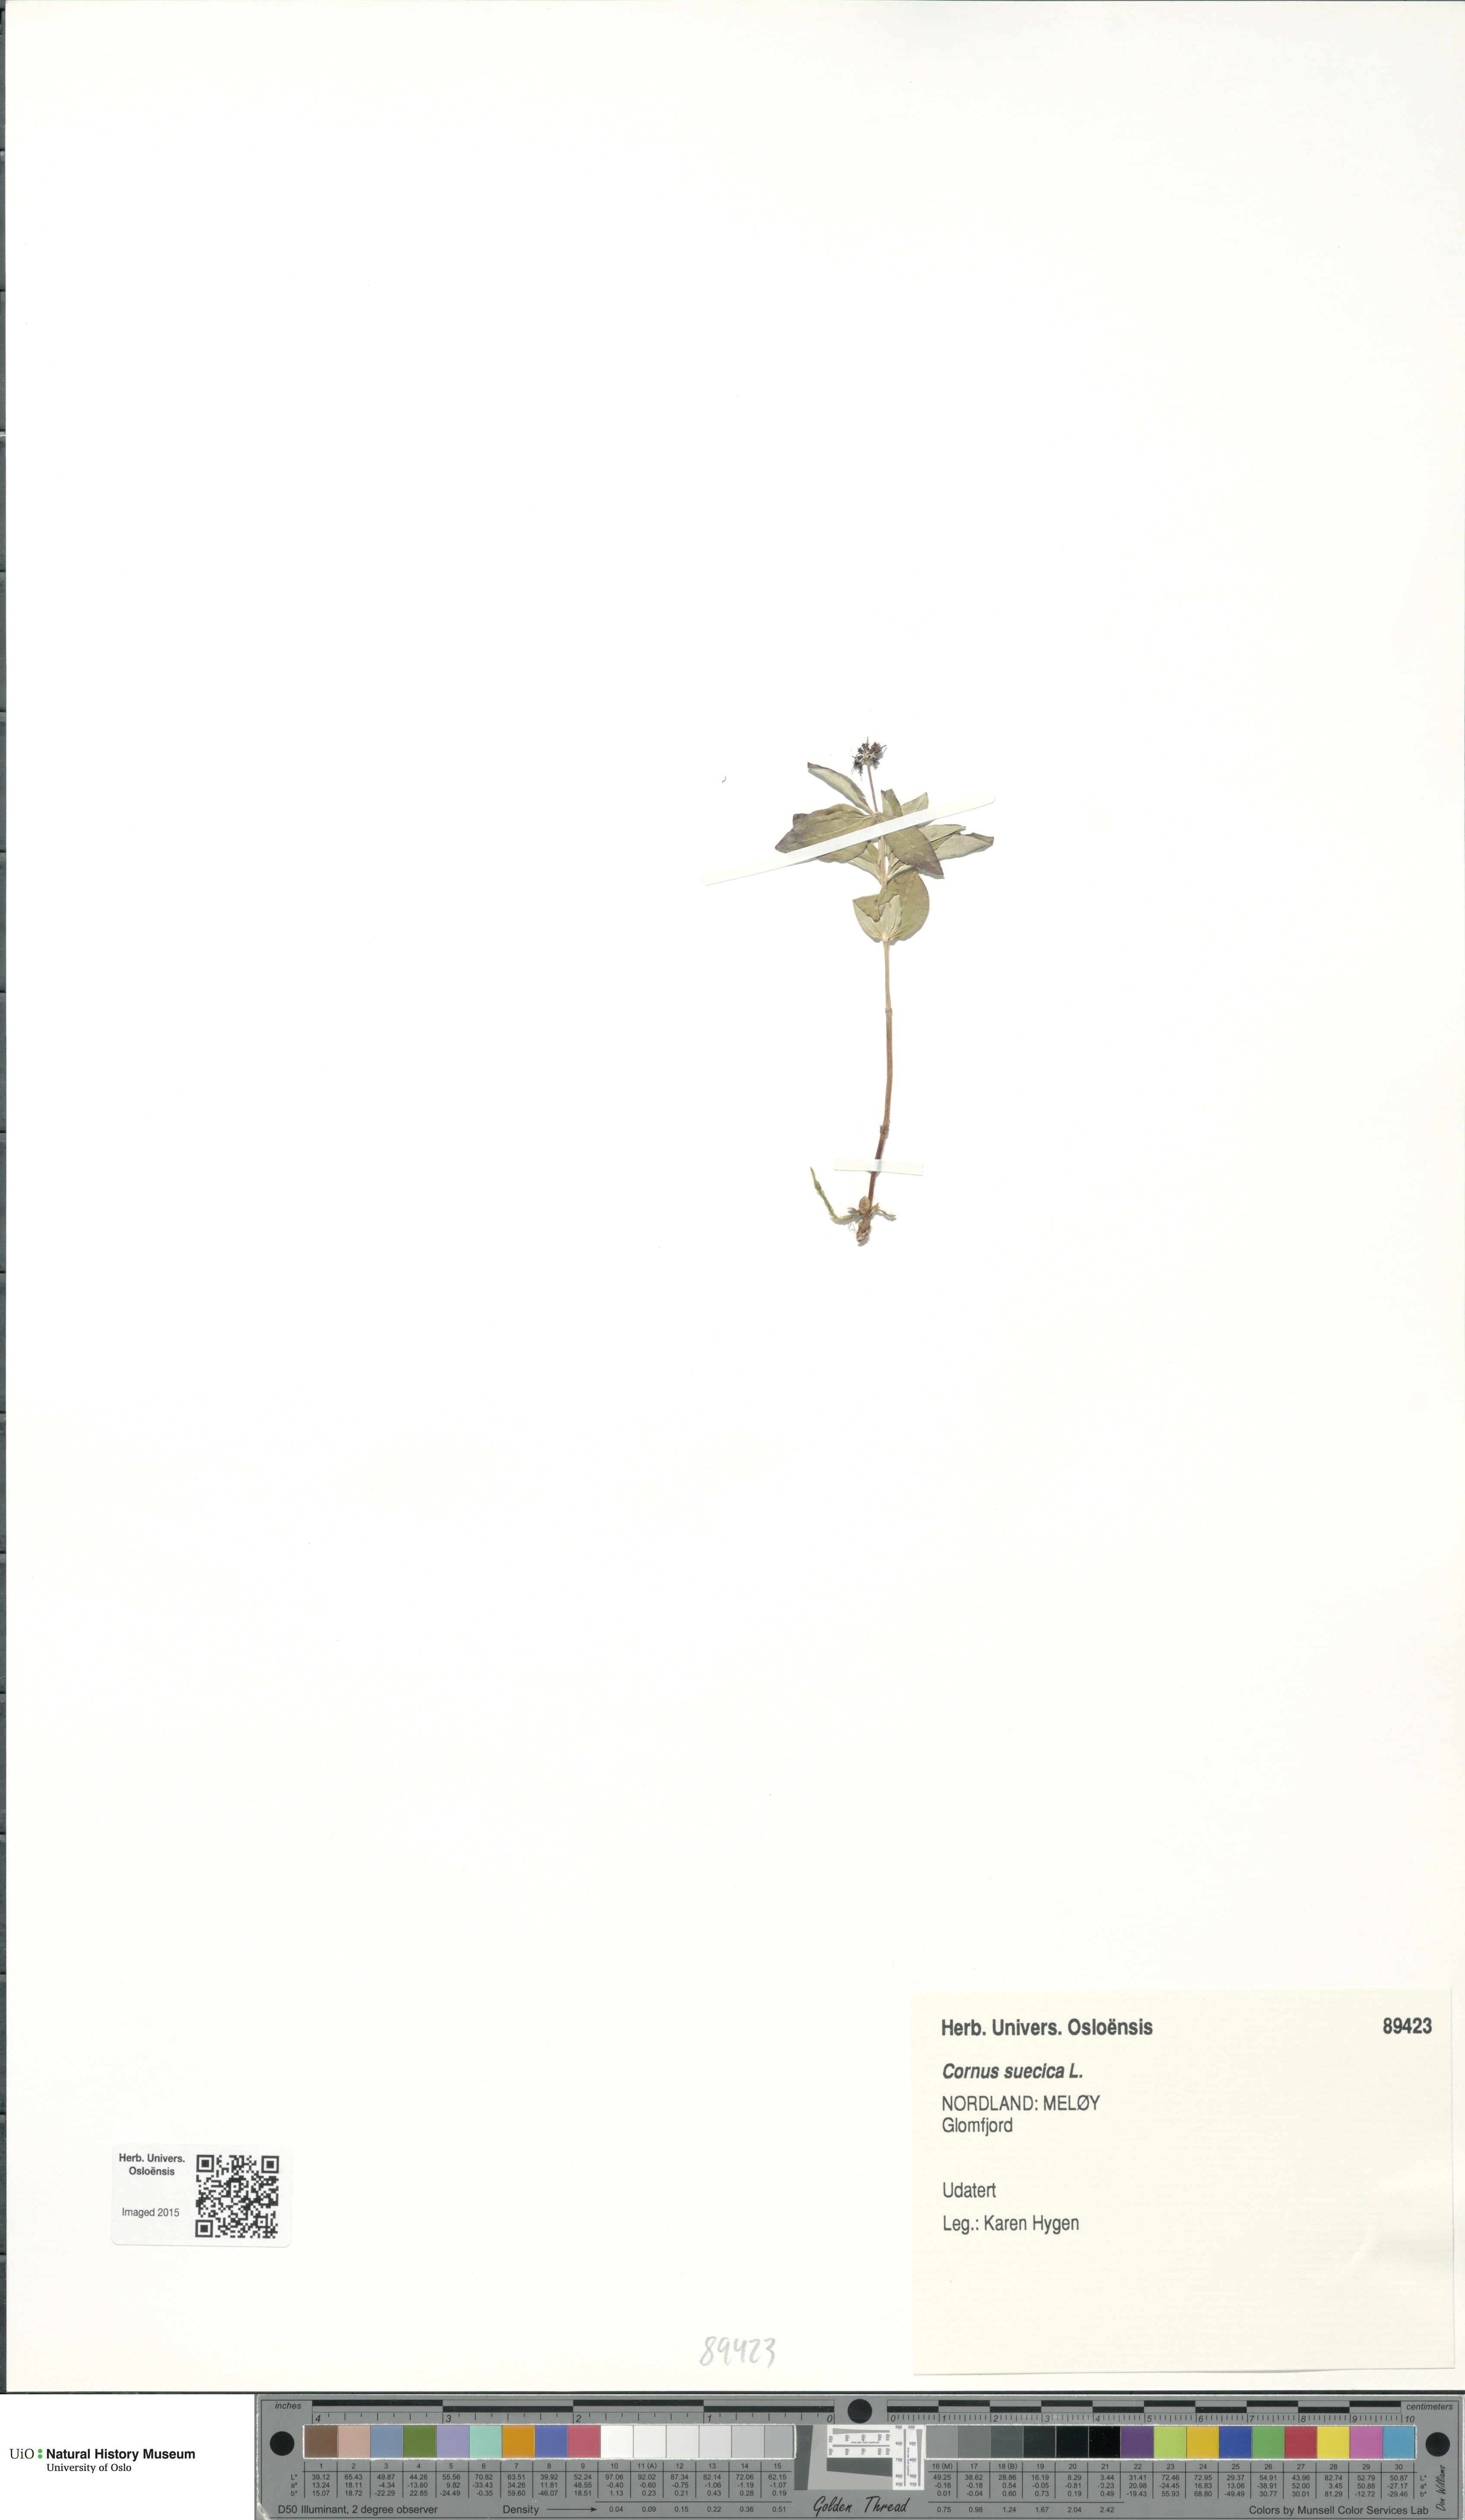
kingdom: Plantae
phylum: Tracheophyta
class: Magnoliopsida
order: Cornales
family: Cornaceae
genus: Cornus
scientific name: Cornus suecica
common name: Dwarf cornel
